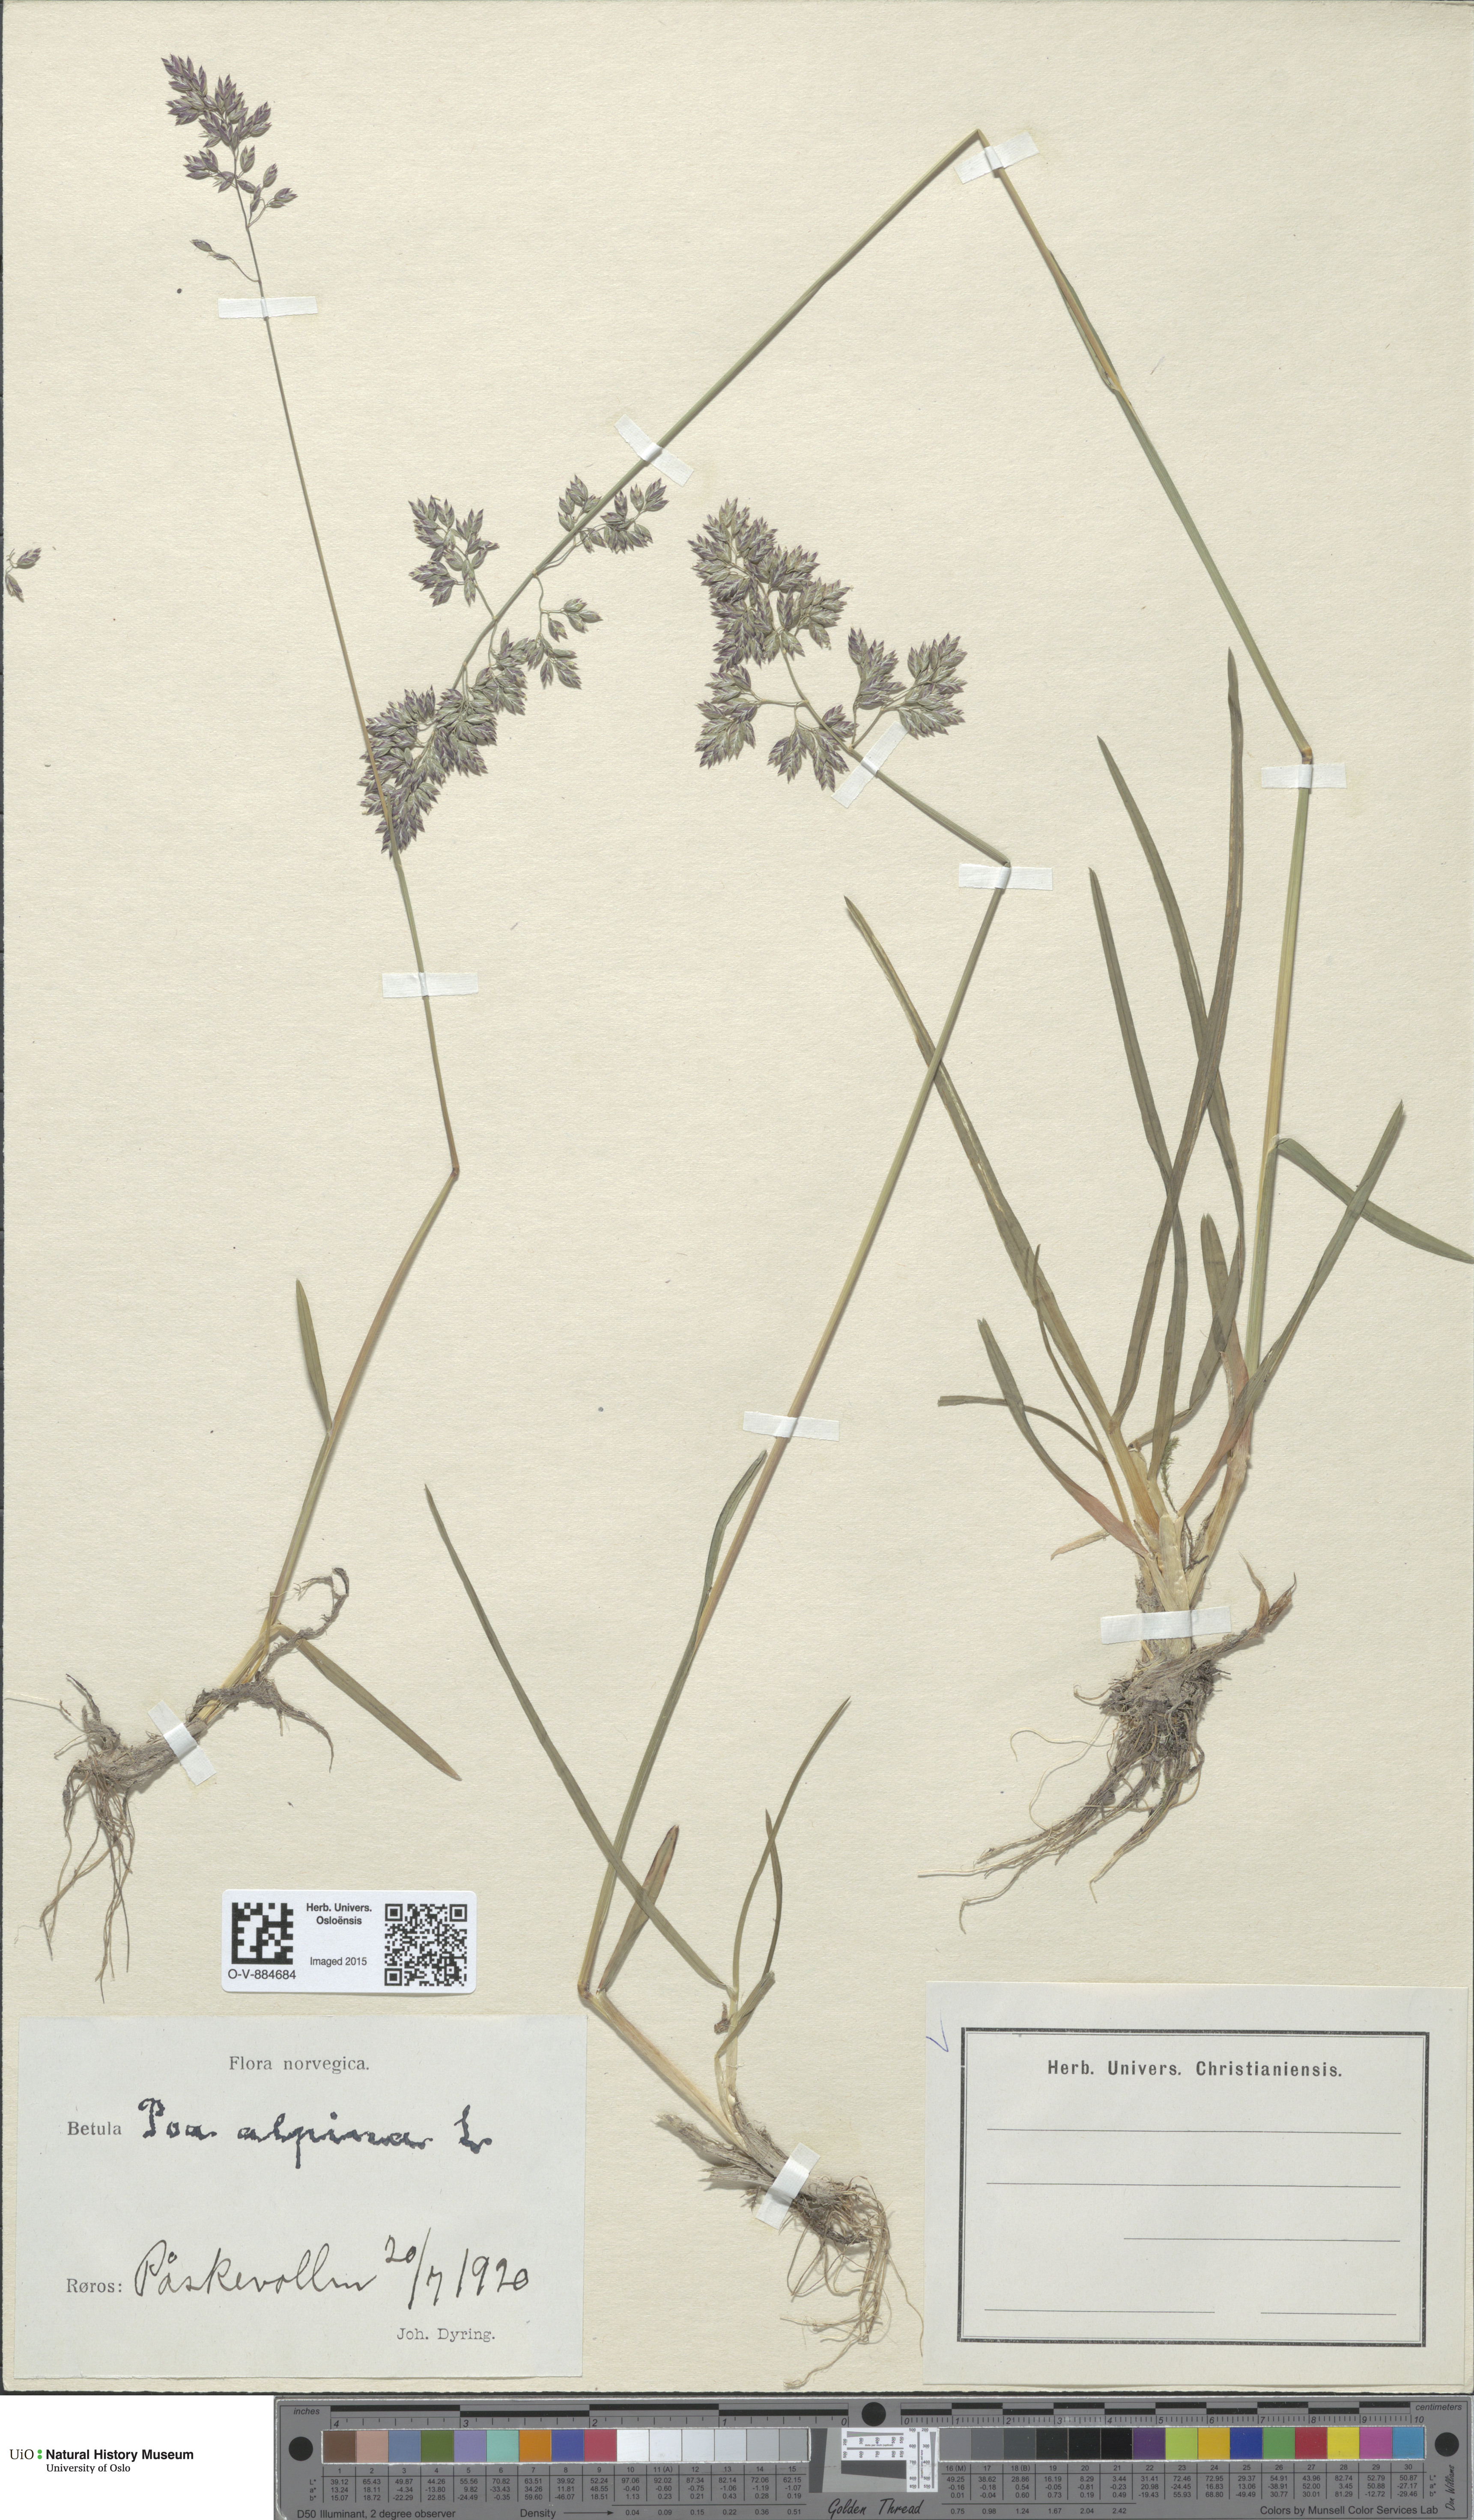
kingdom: Plantae
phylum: Tracheophyta
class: Liliopsida
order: Poales
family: Poaceae
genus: Poa
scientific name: Poa alpina
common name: Alpine bluegrass
